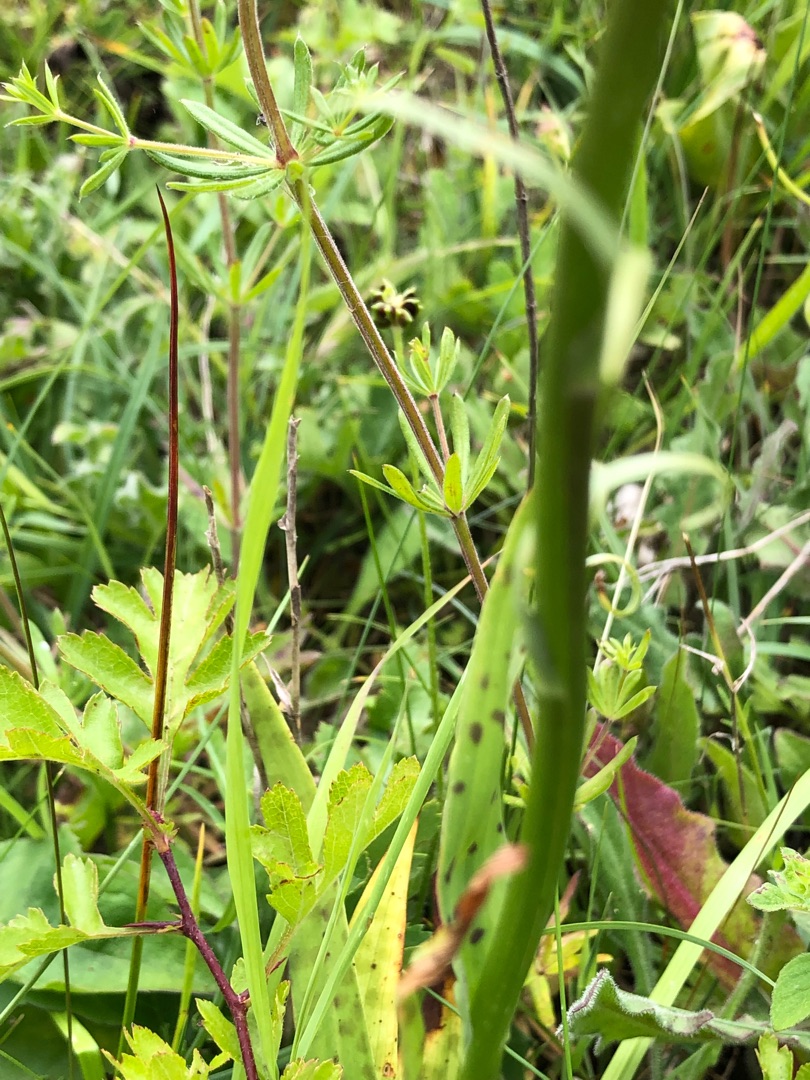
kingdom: Plantae
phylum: Tracheophyta
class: Liliopsida
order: Asparagales
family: Orchidaceae
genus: Dactylorhiza
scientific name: Dactylorhiza maculata
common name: Plettet gøgeurt
